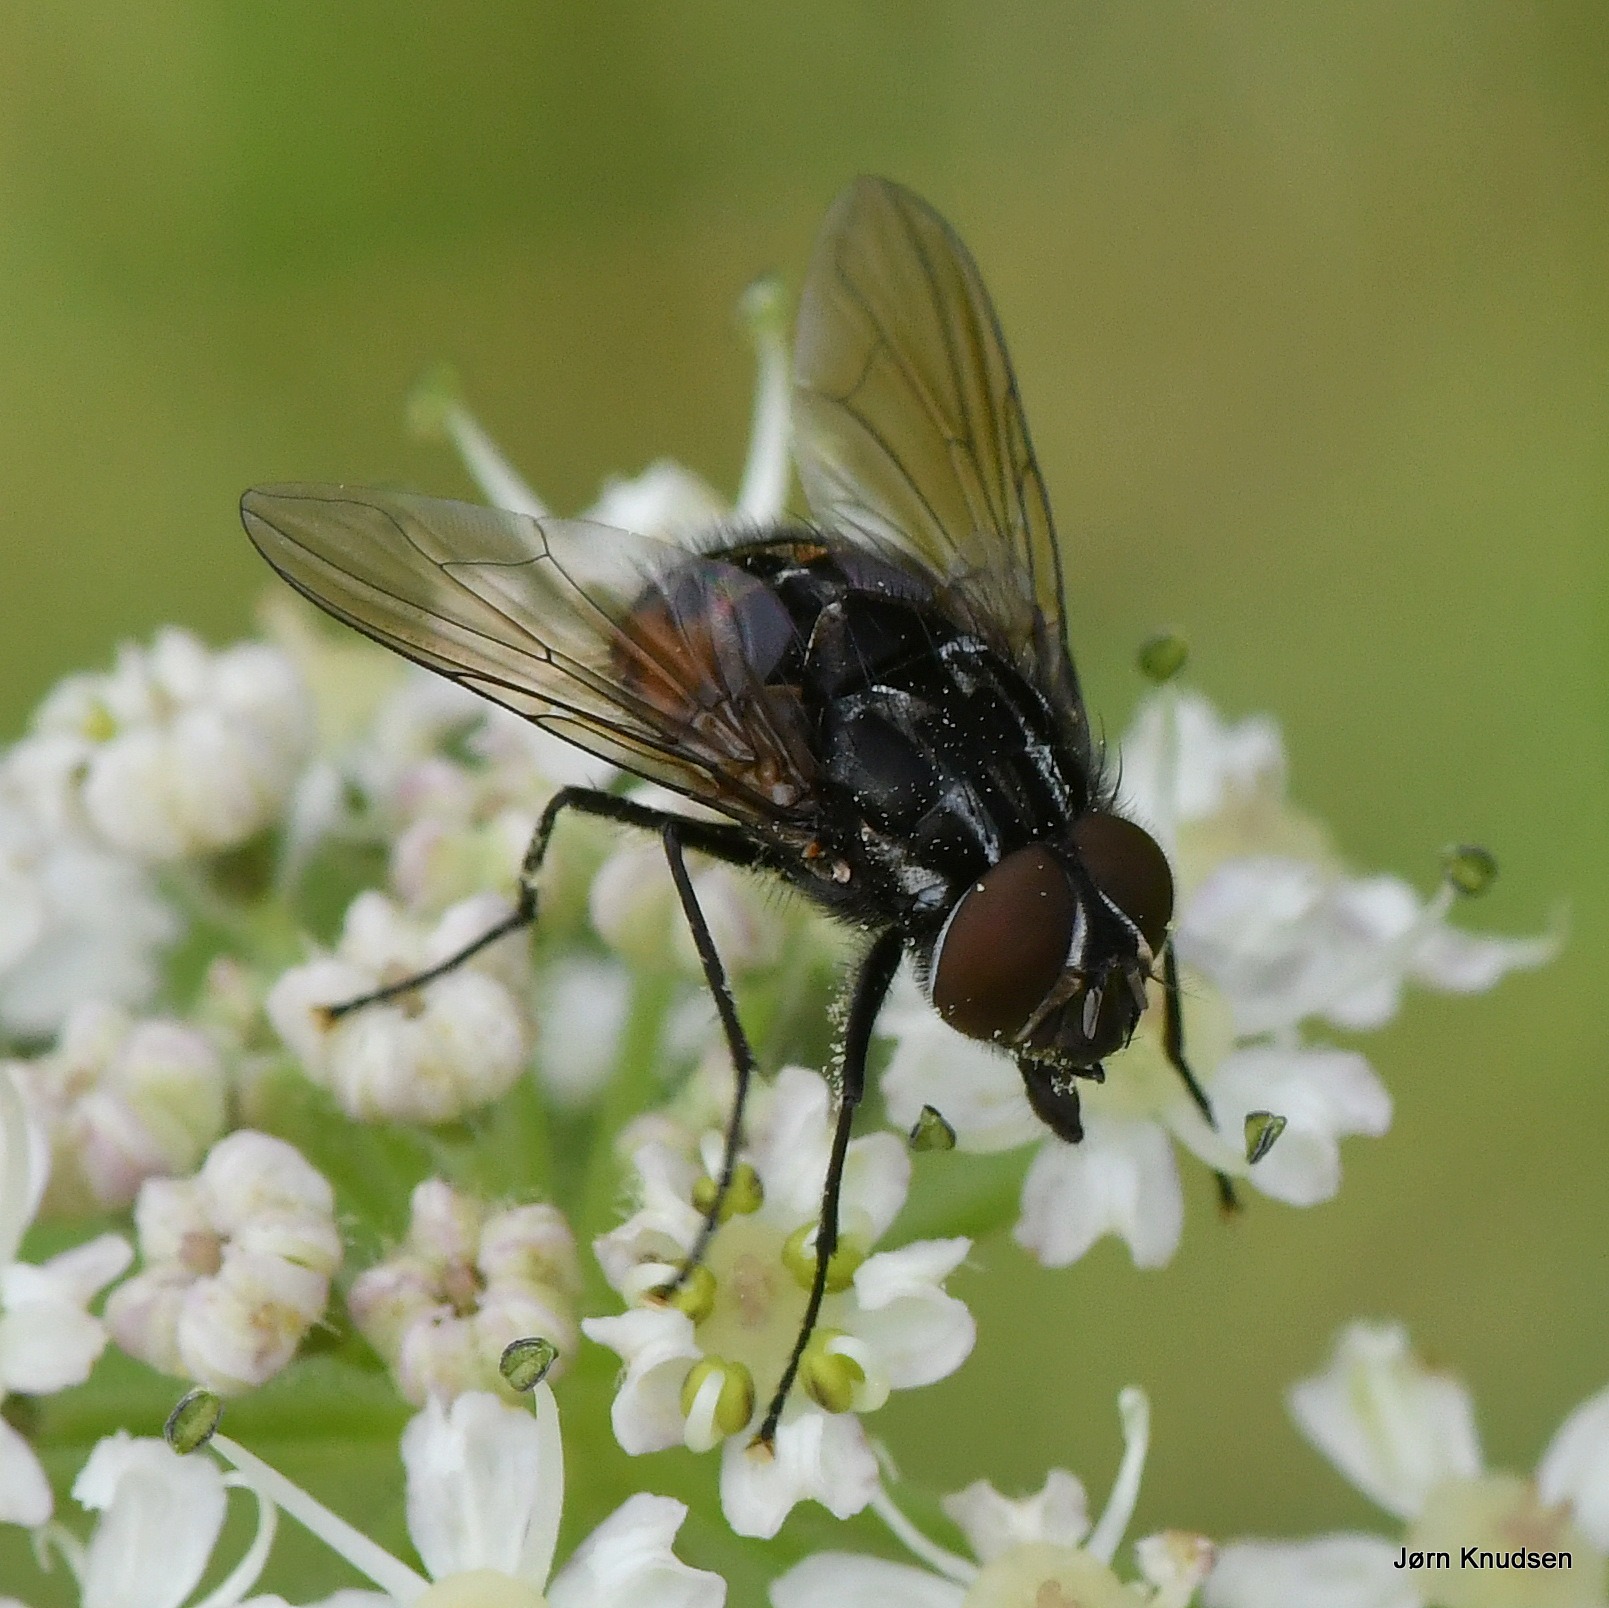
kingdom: Animalia
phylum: Arthropoda
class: Insecta
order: Diptera
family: Muscidae
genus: Graphomya
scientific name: Graphomya maculata
